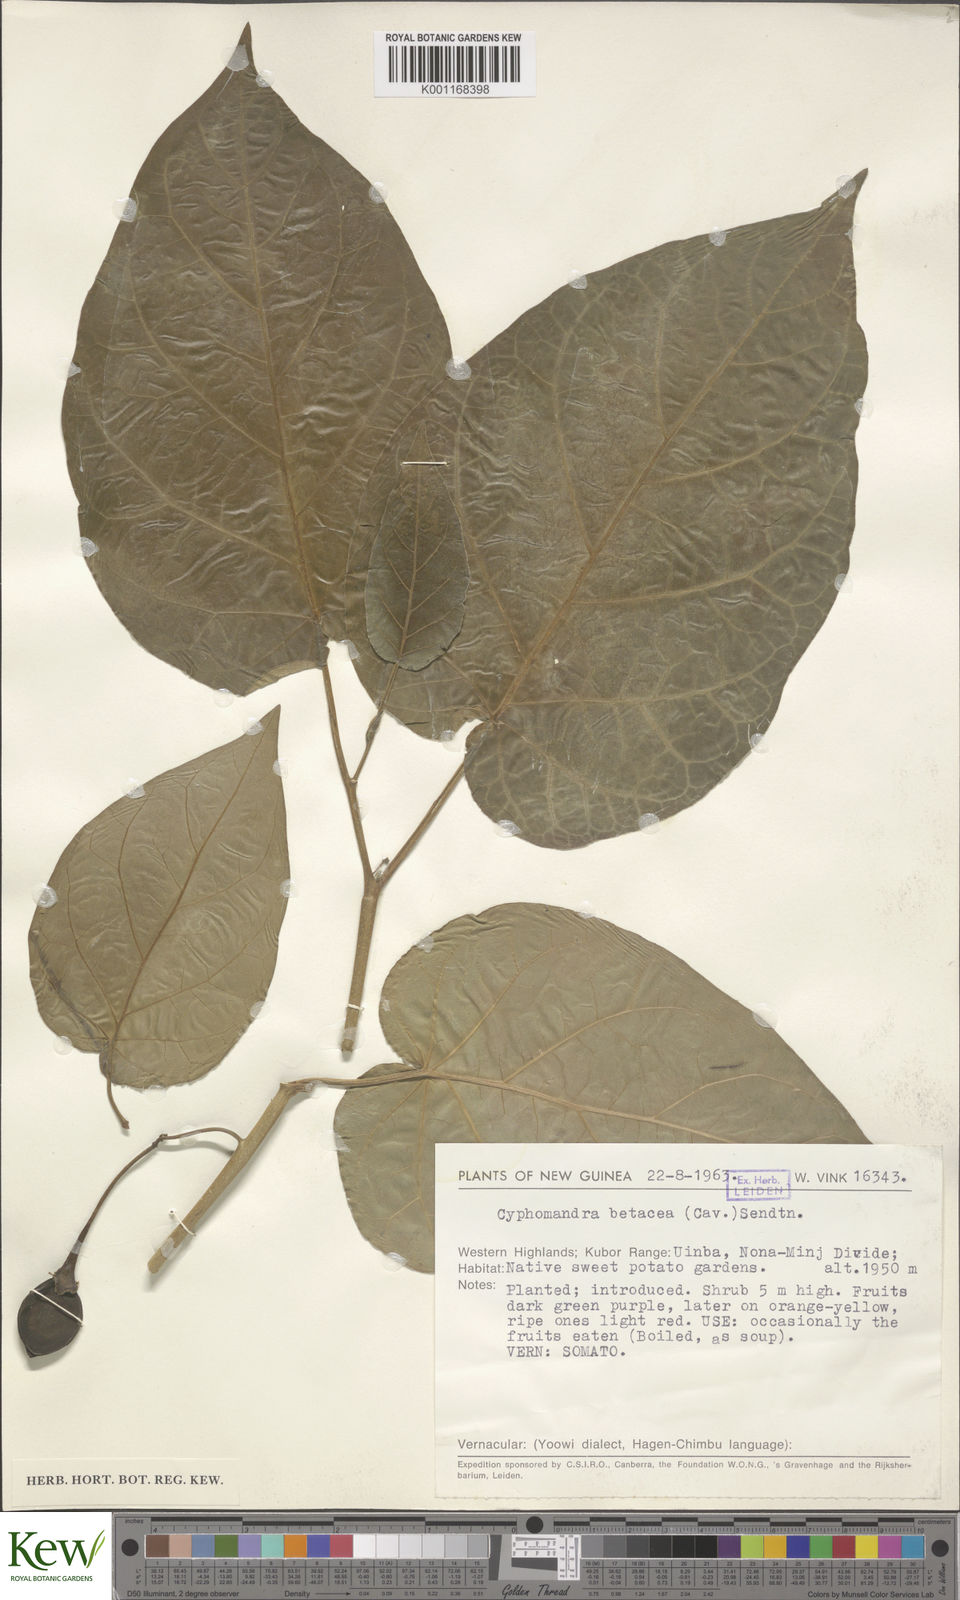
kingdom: Plantae
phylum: Tracheophyta
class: Magnoliopsida
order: Solanales
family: Solanaceae
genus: Solanum
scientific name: Solanum betaceum
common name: Tamarillo
